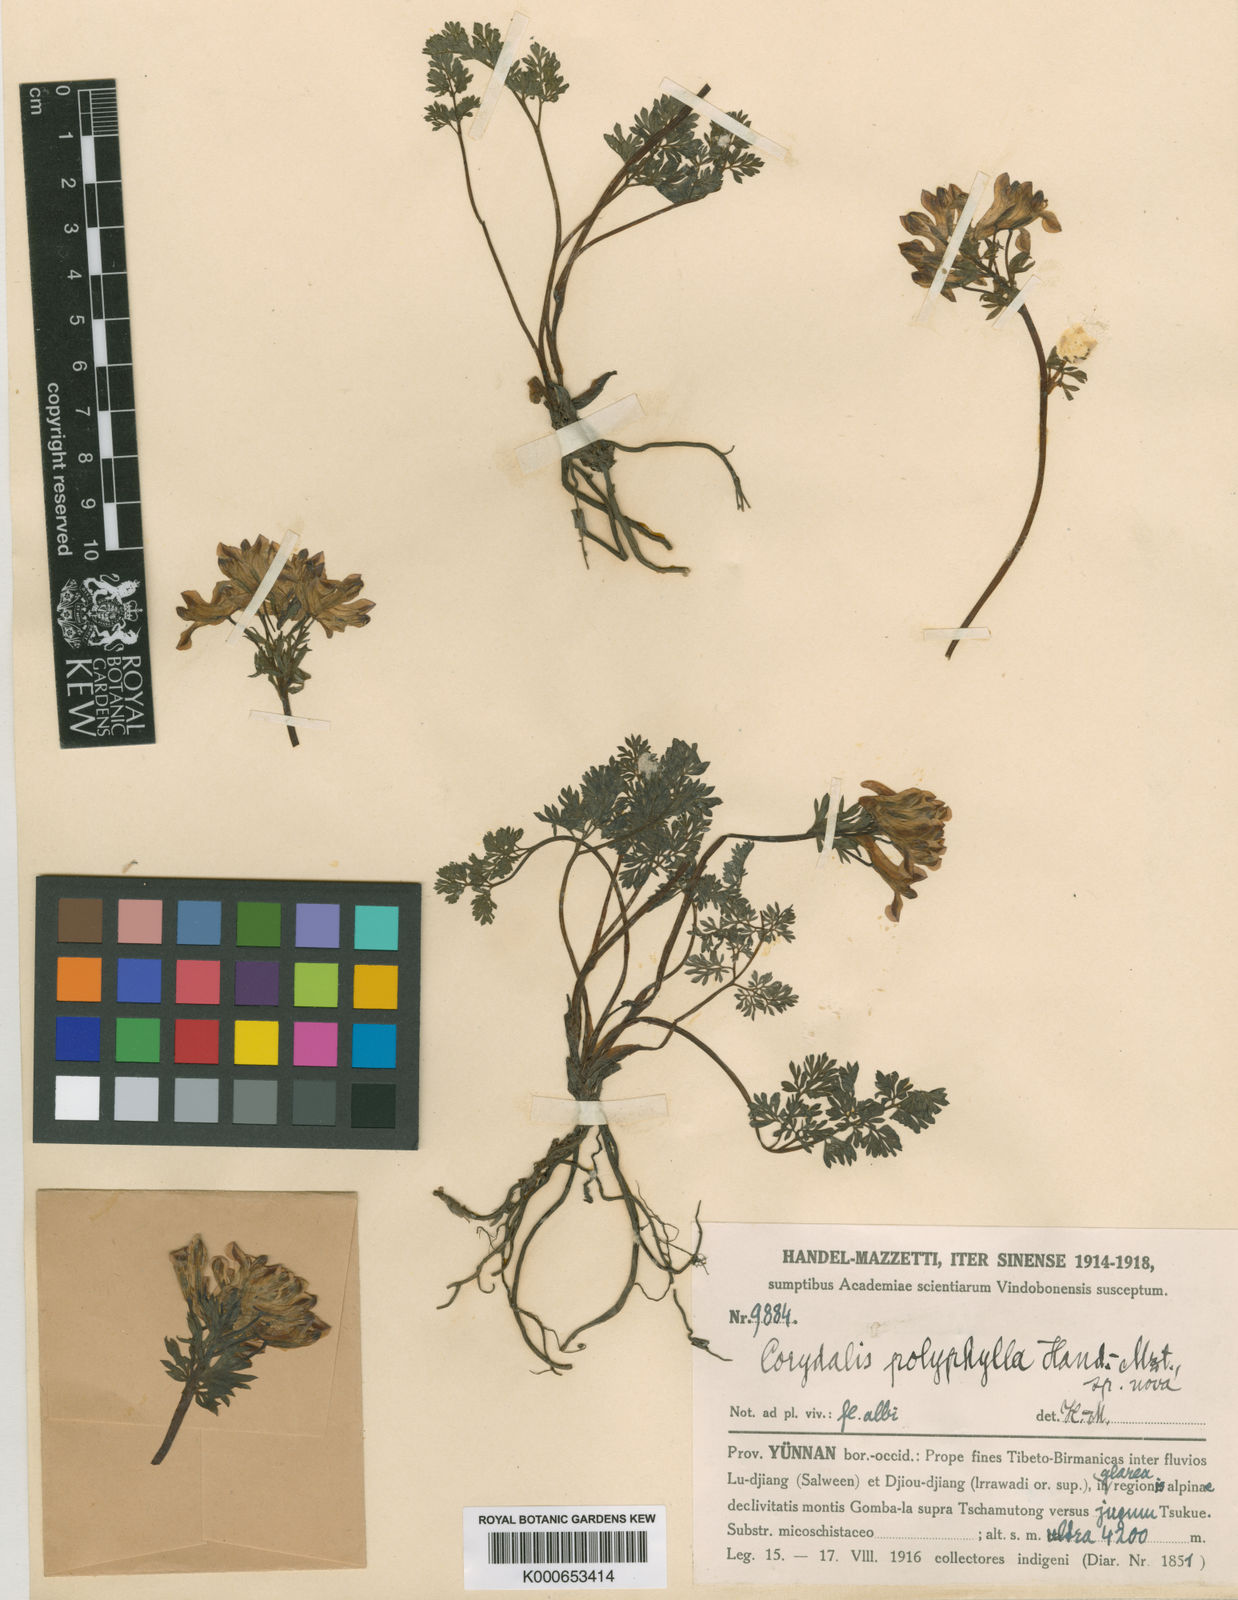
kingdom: Plantae
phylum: Tracheophyta
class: Magnoliopsida
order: Ranunculales
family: Papaveraceae
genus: Corydalis
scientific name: Corydalis polyphylla
